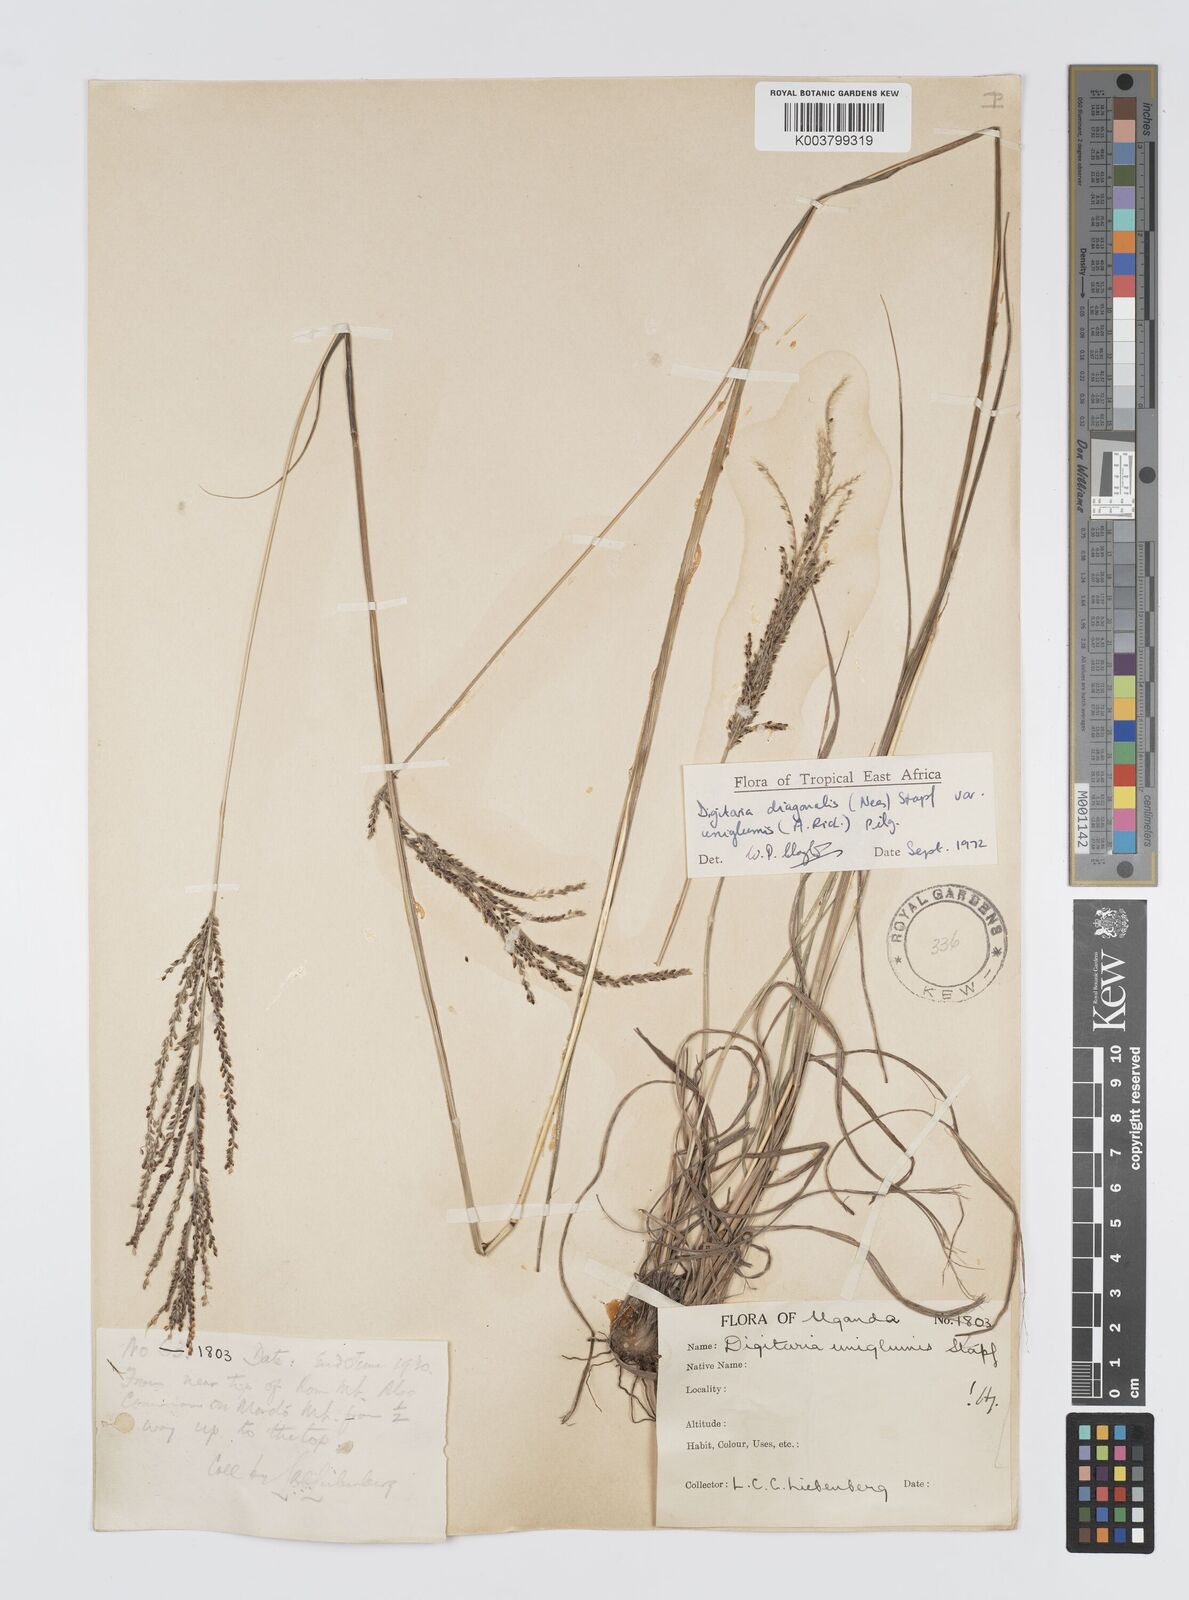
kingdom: Plantae
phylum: Tracheophyta
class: Liliopsida
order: Poales
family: Poaceae
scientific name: Poaceae
